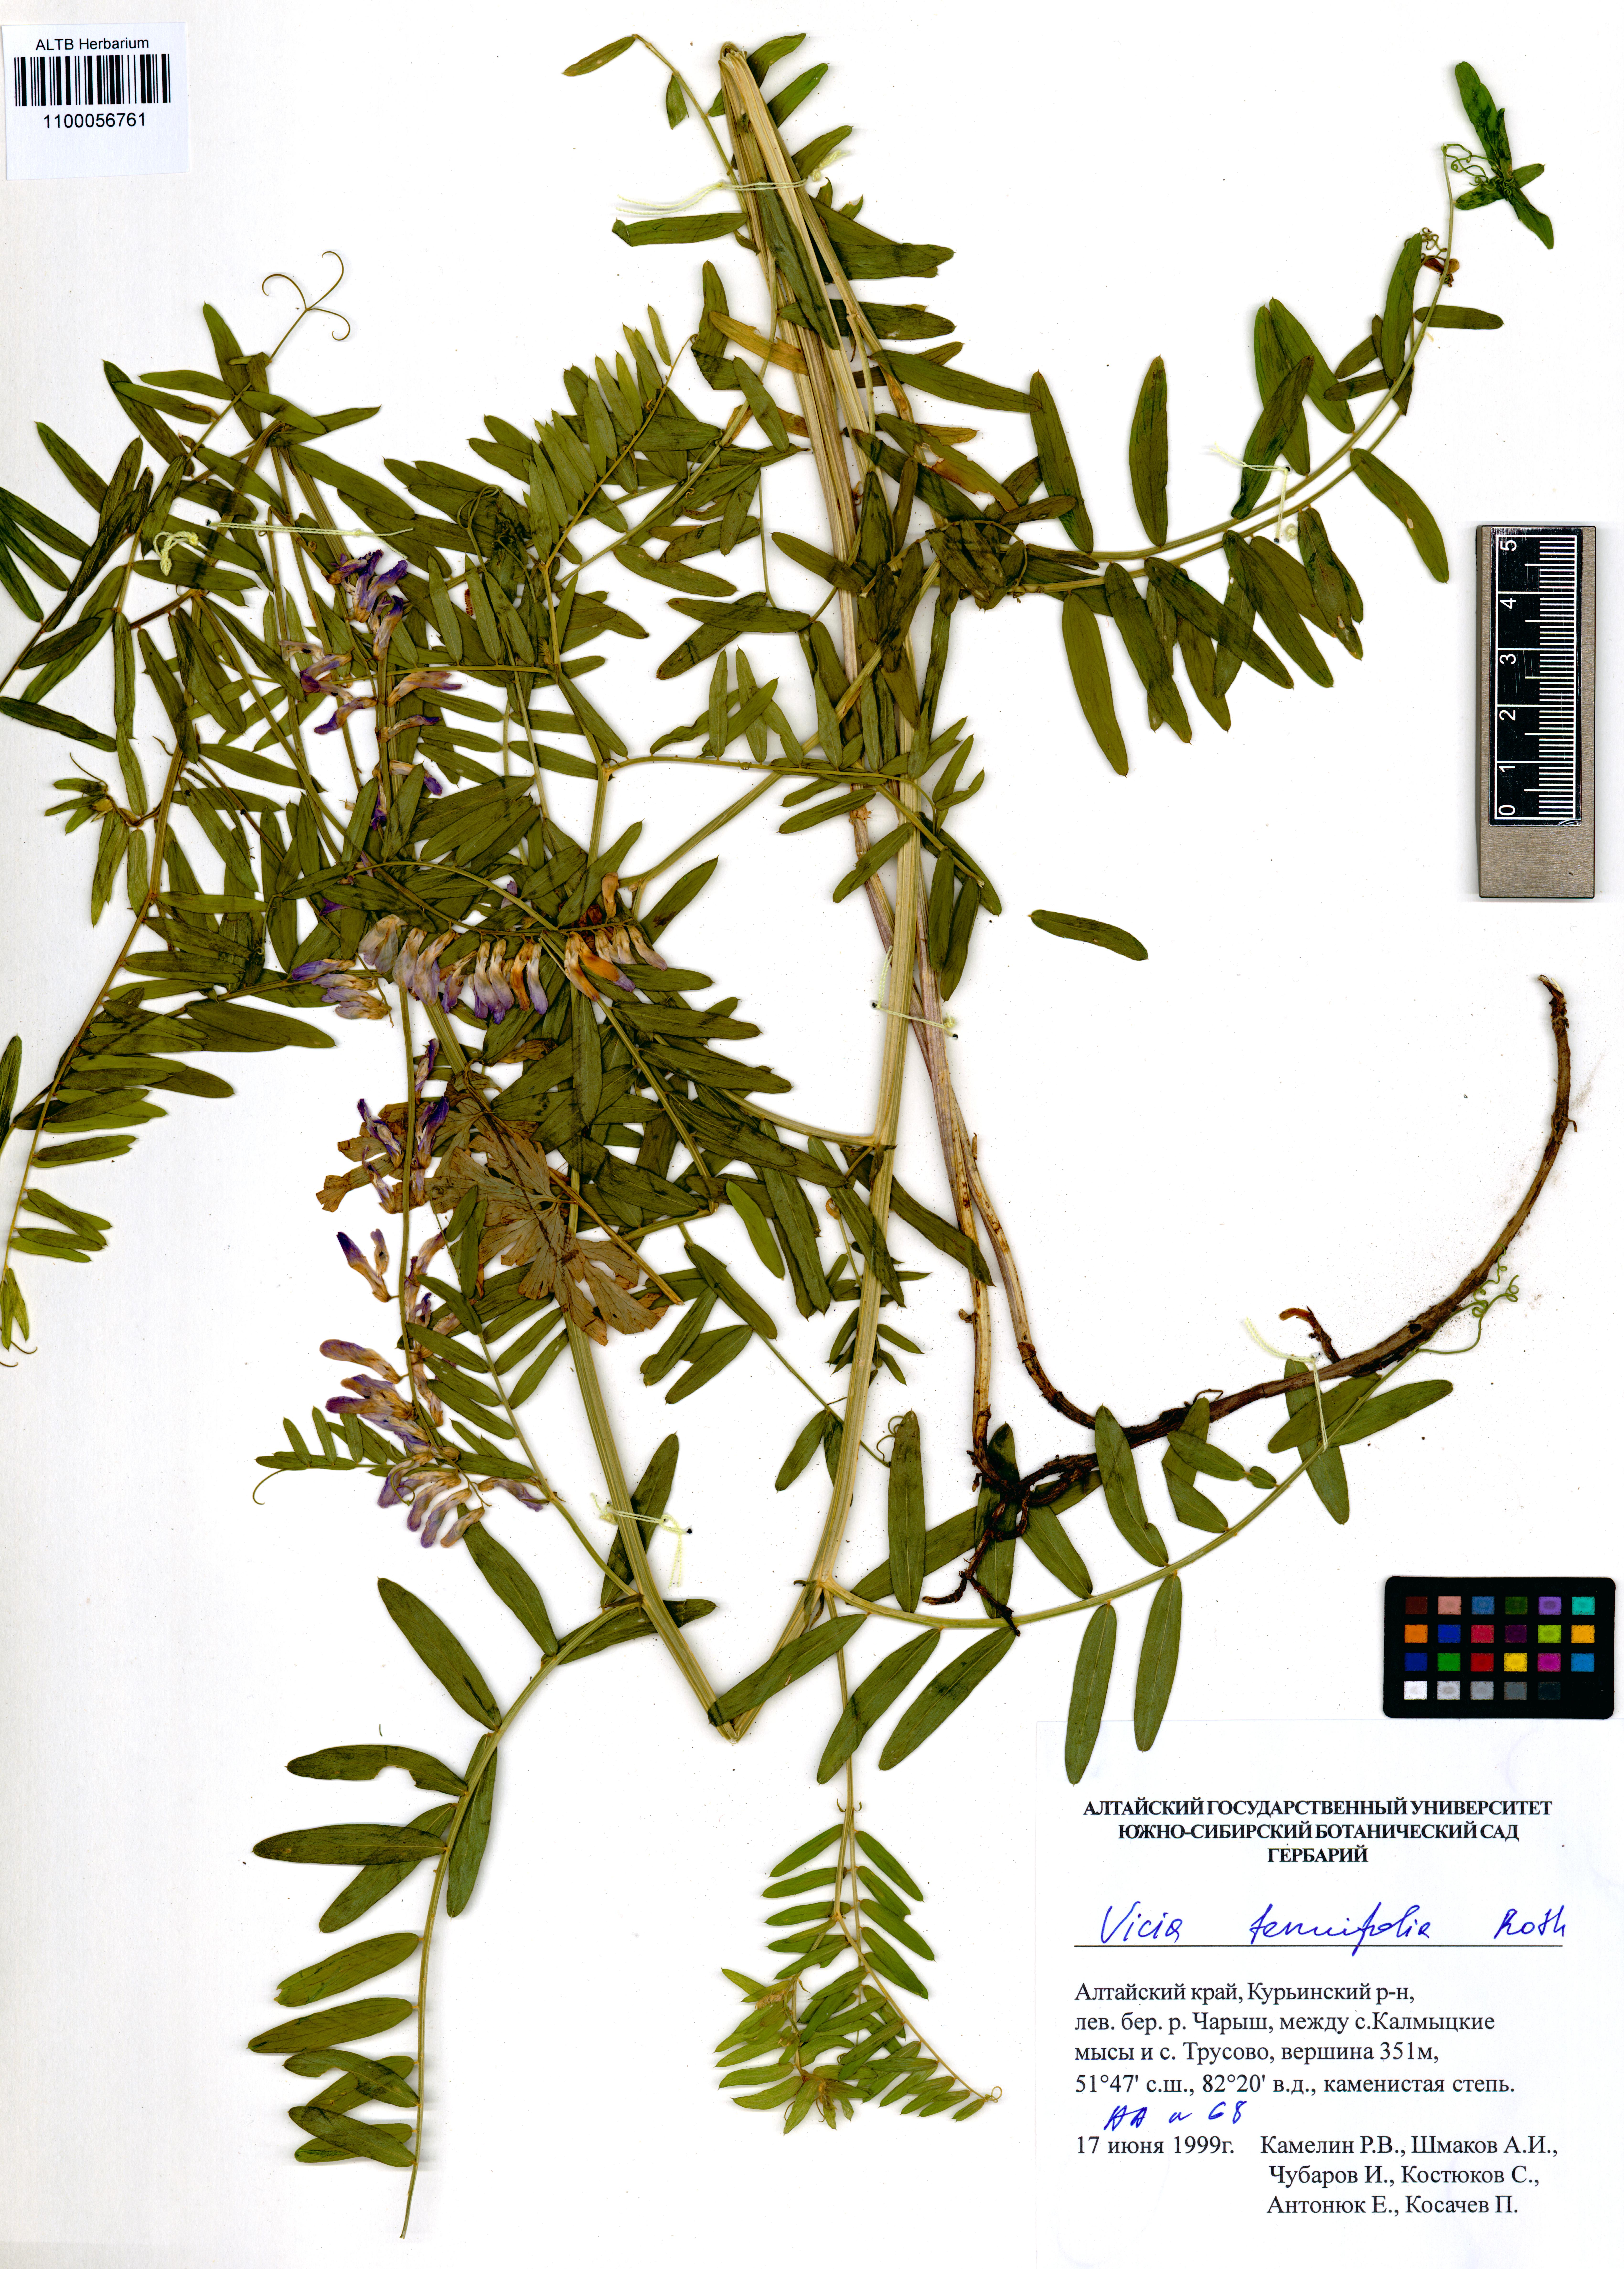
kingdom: Plantae
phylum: Tracheophyta
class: Magnoliopsida
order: Fabales
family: Fabaceae
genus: Vicia
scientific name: Vicia tenuifolia
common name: Fine-leaved vetch
